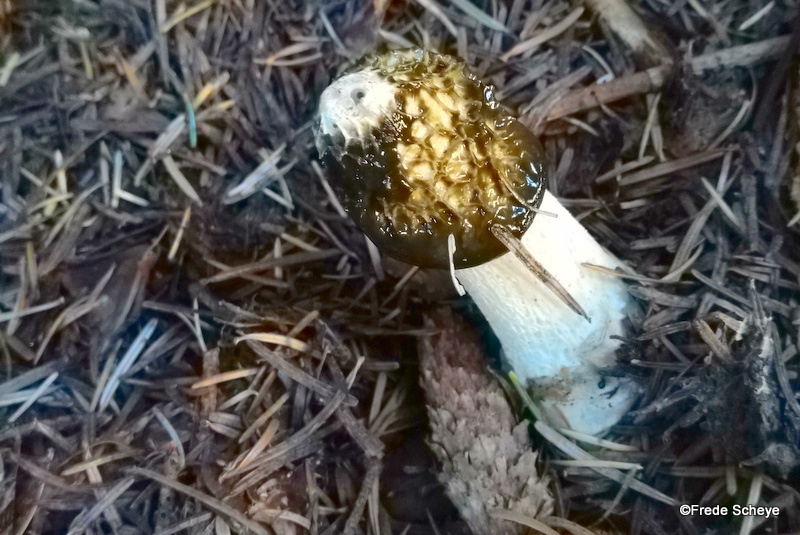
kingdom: Fungi
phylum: Basidiomycota
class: Agaricomycetes
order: Phallales
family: Phallaceae
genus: Phallus
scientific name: Phallus impudicus
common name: almindelig stinksvamp
